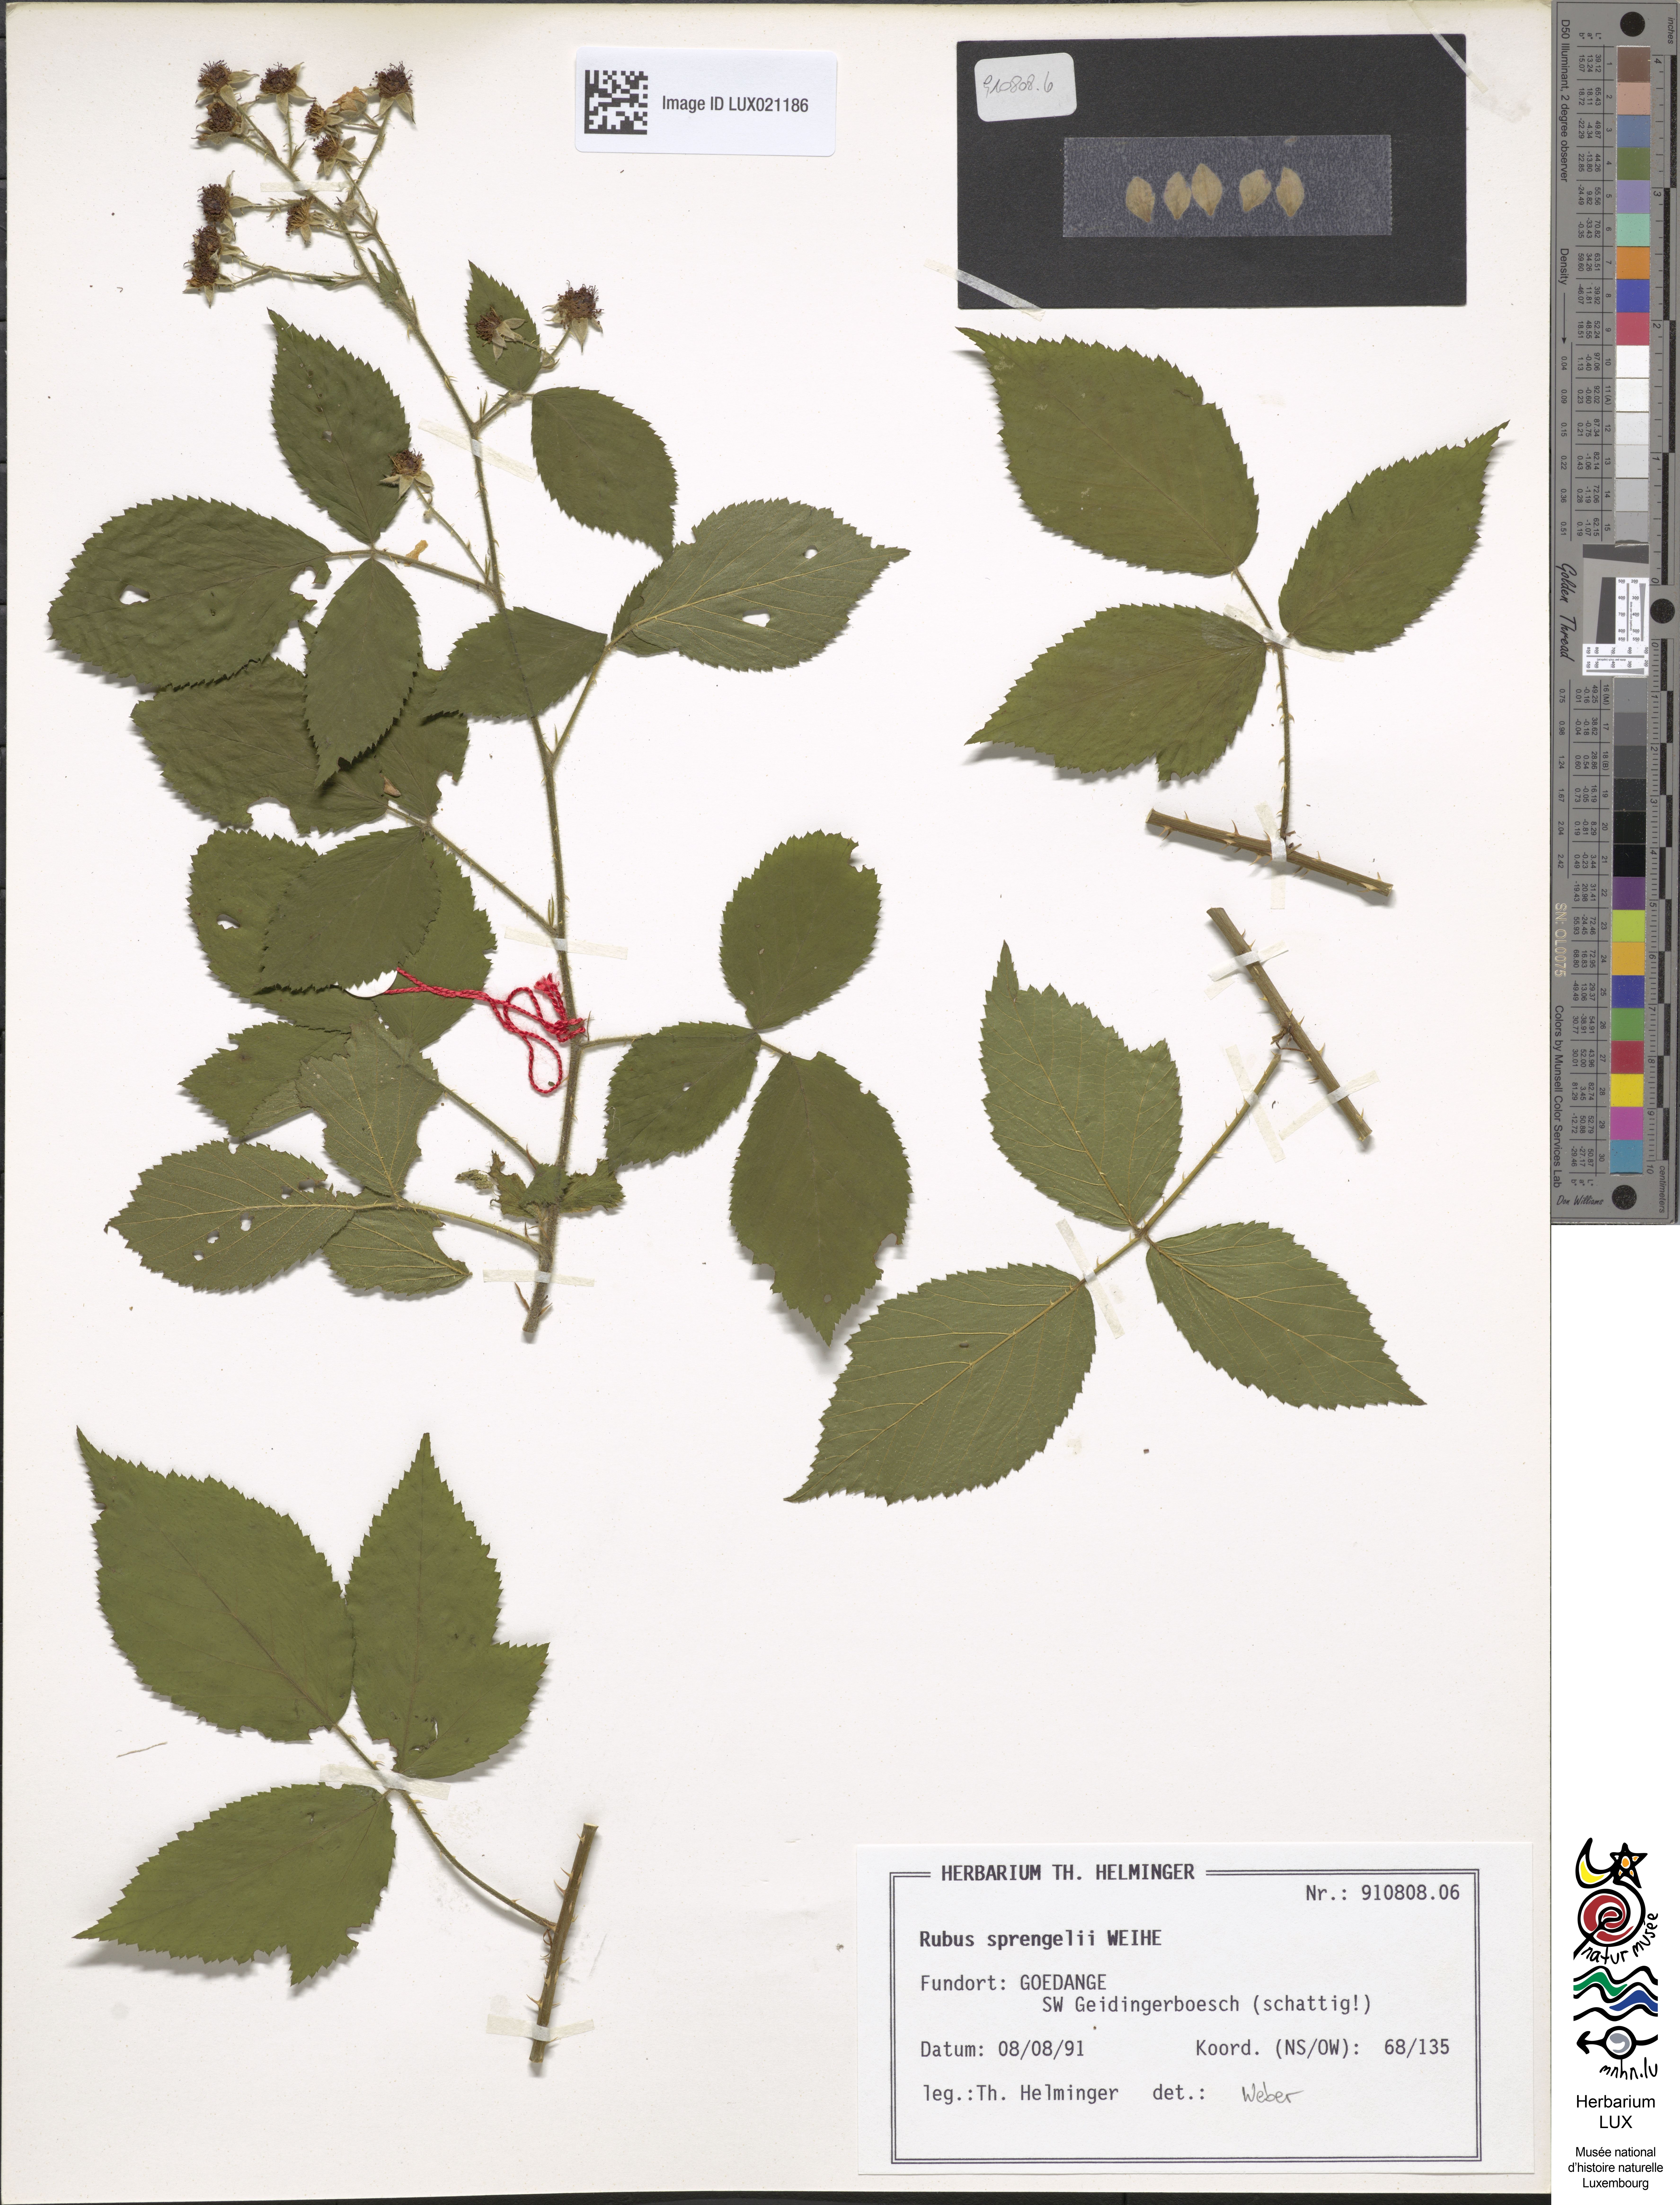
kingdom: Plantae
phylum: Tracheophyta
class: Magnoliopsida
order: Rosales
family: Rosaceae
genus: Rubus
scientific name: Rubus sprengelii
